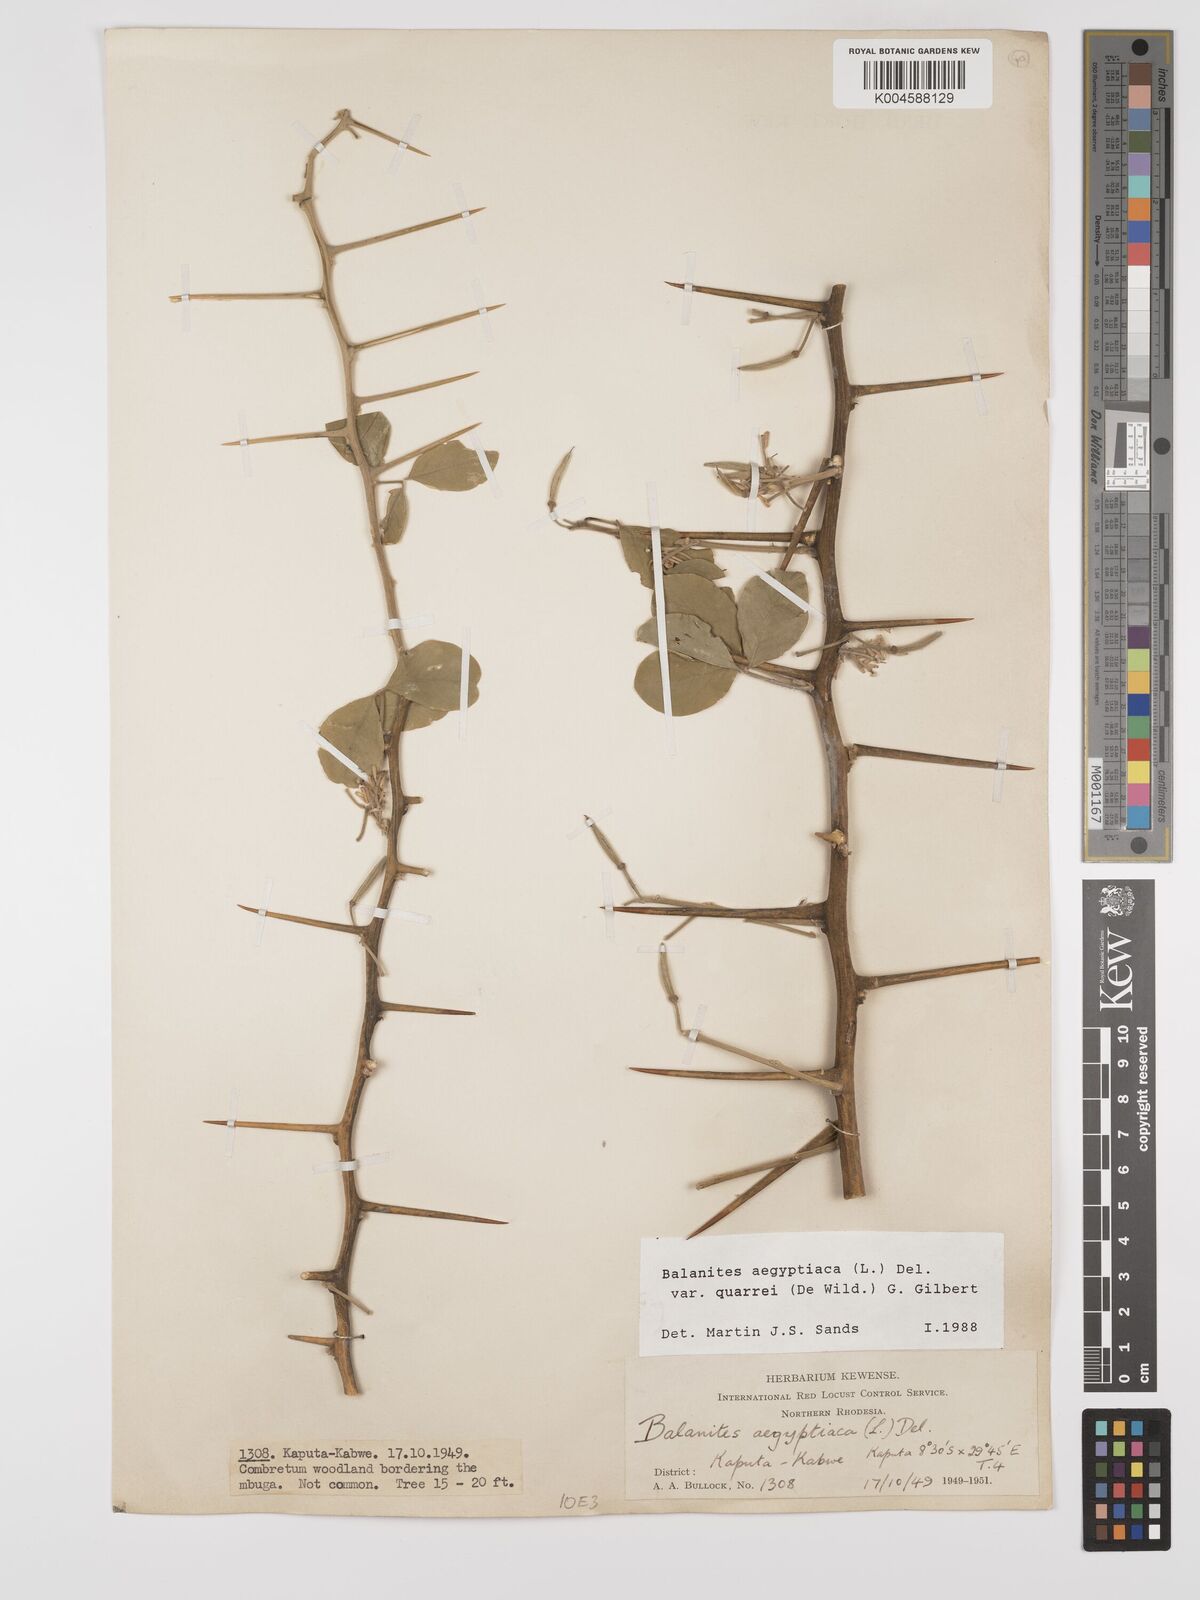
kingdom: Plantae
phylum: Tracheophyta
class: Magnoliopsida
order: Zygophyllales
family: Zygophyllaceae
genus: Balanites
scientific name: Balanites aegyptiaca
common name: Balanites
